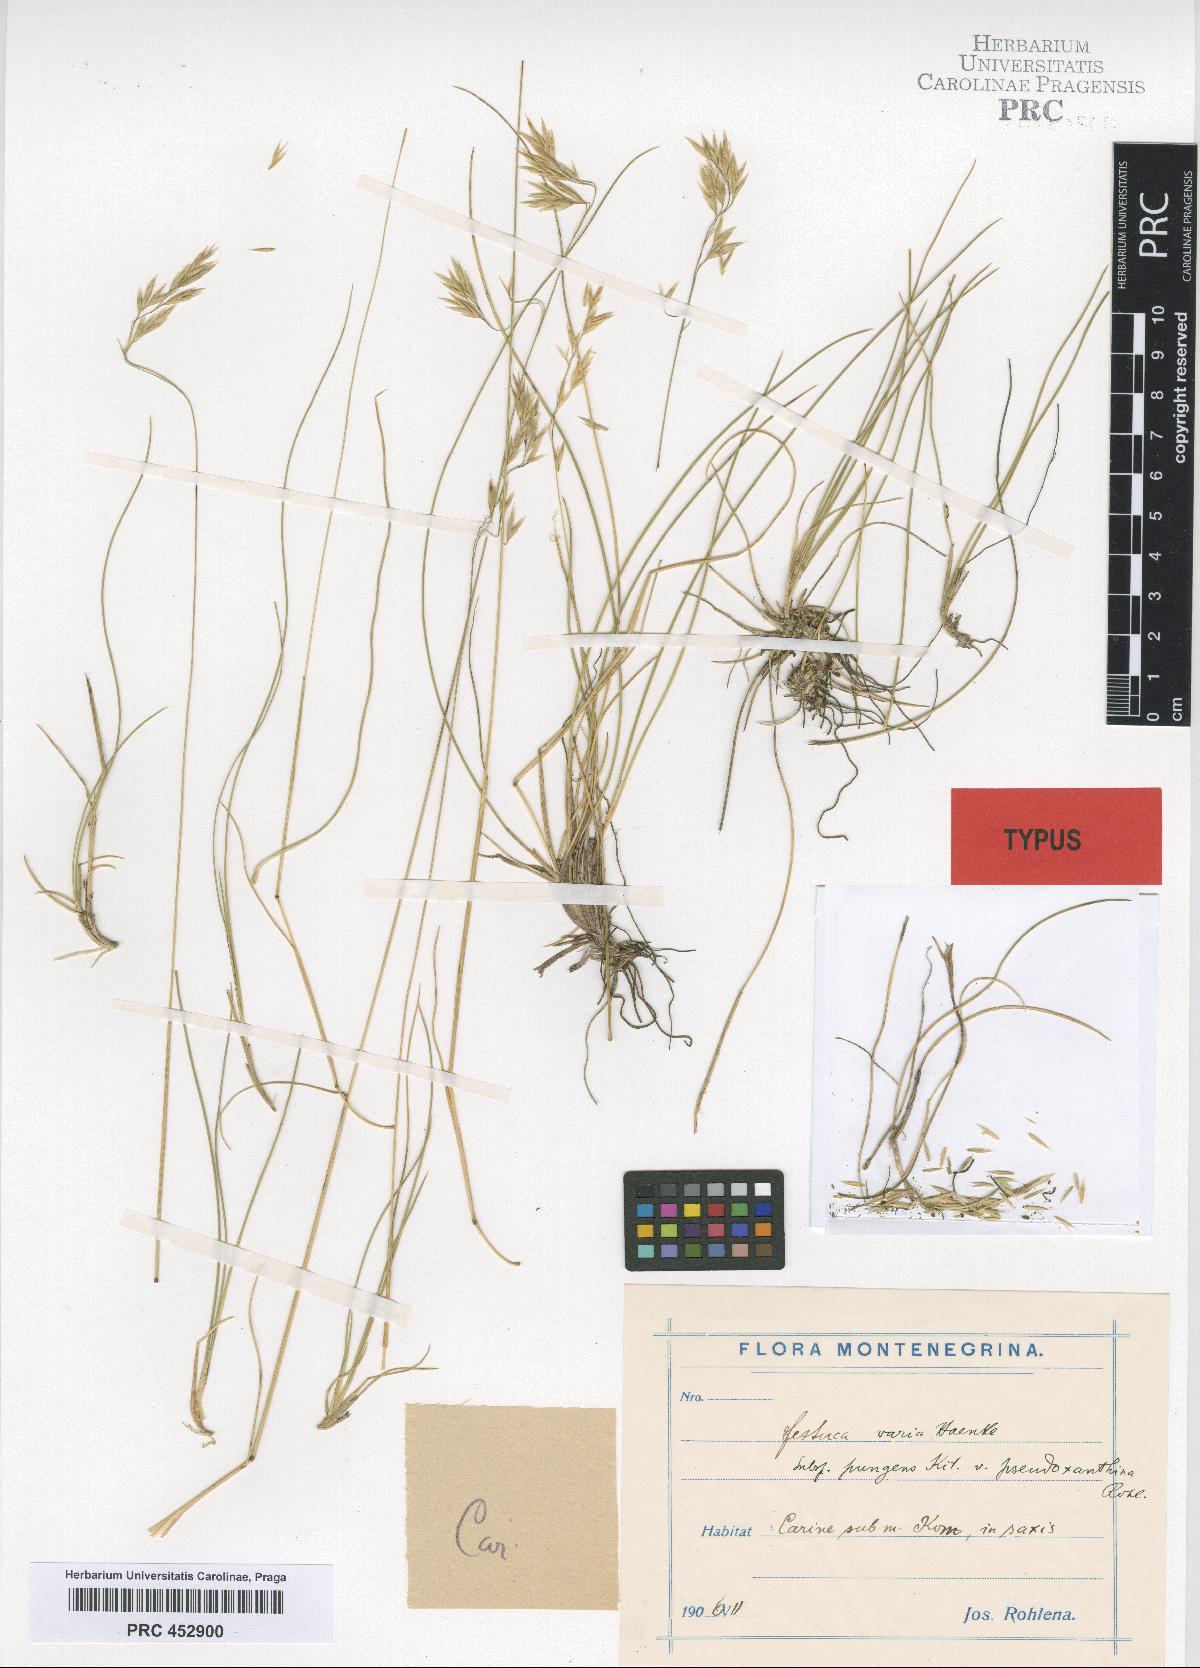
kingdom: Plantae
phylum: Tracheophyta
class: Liliopsida
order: Poales
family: Poaceae
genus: Festuca
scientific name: Festuca varia
